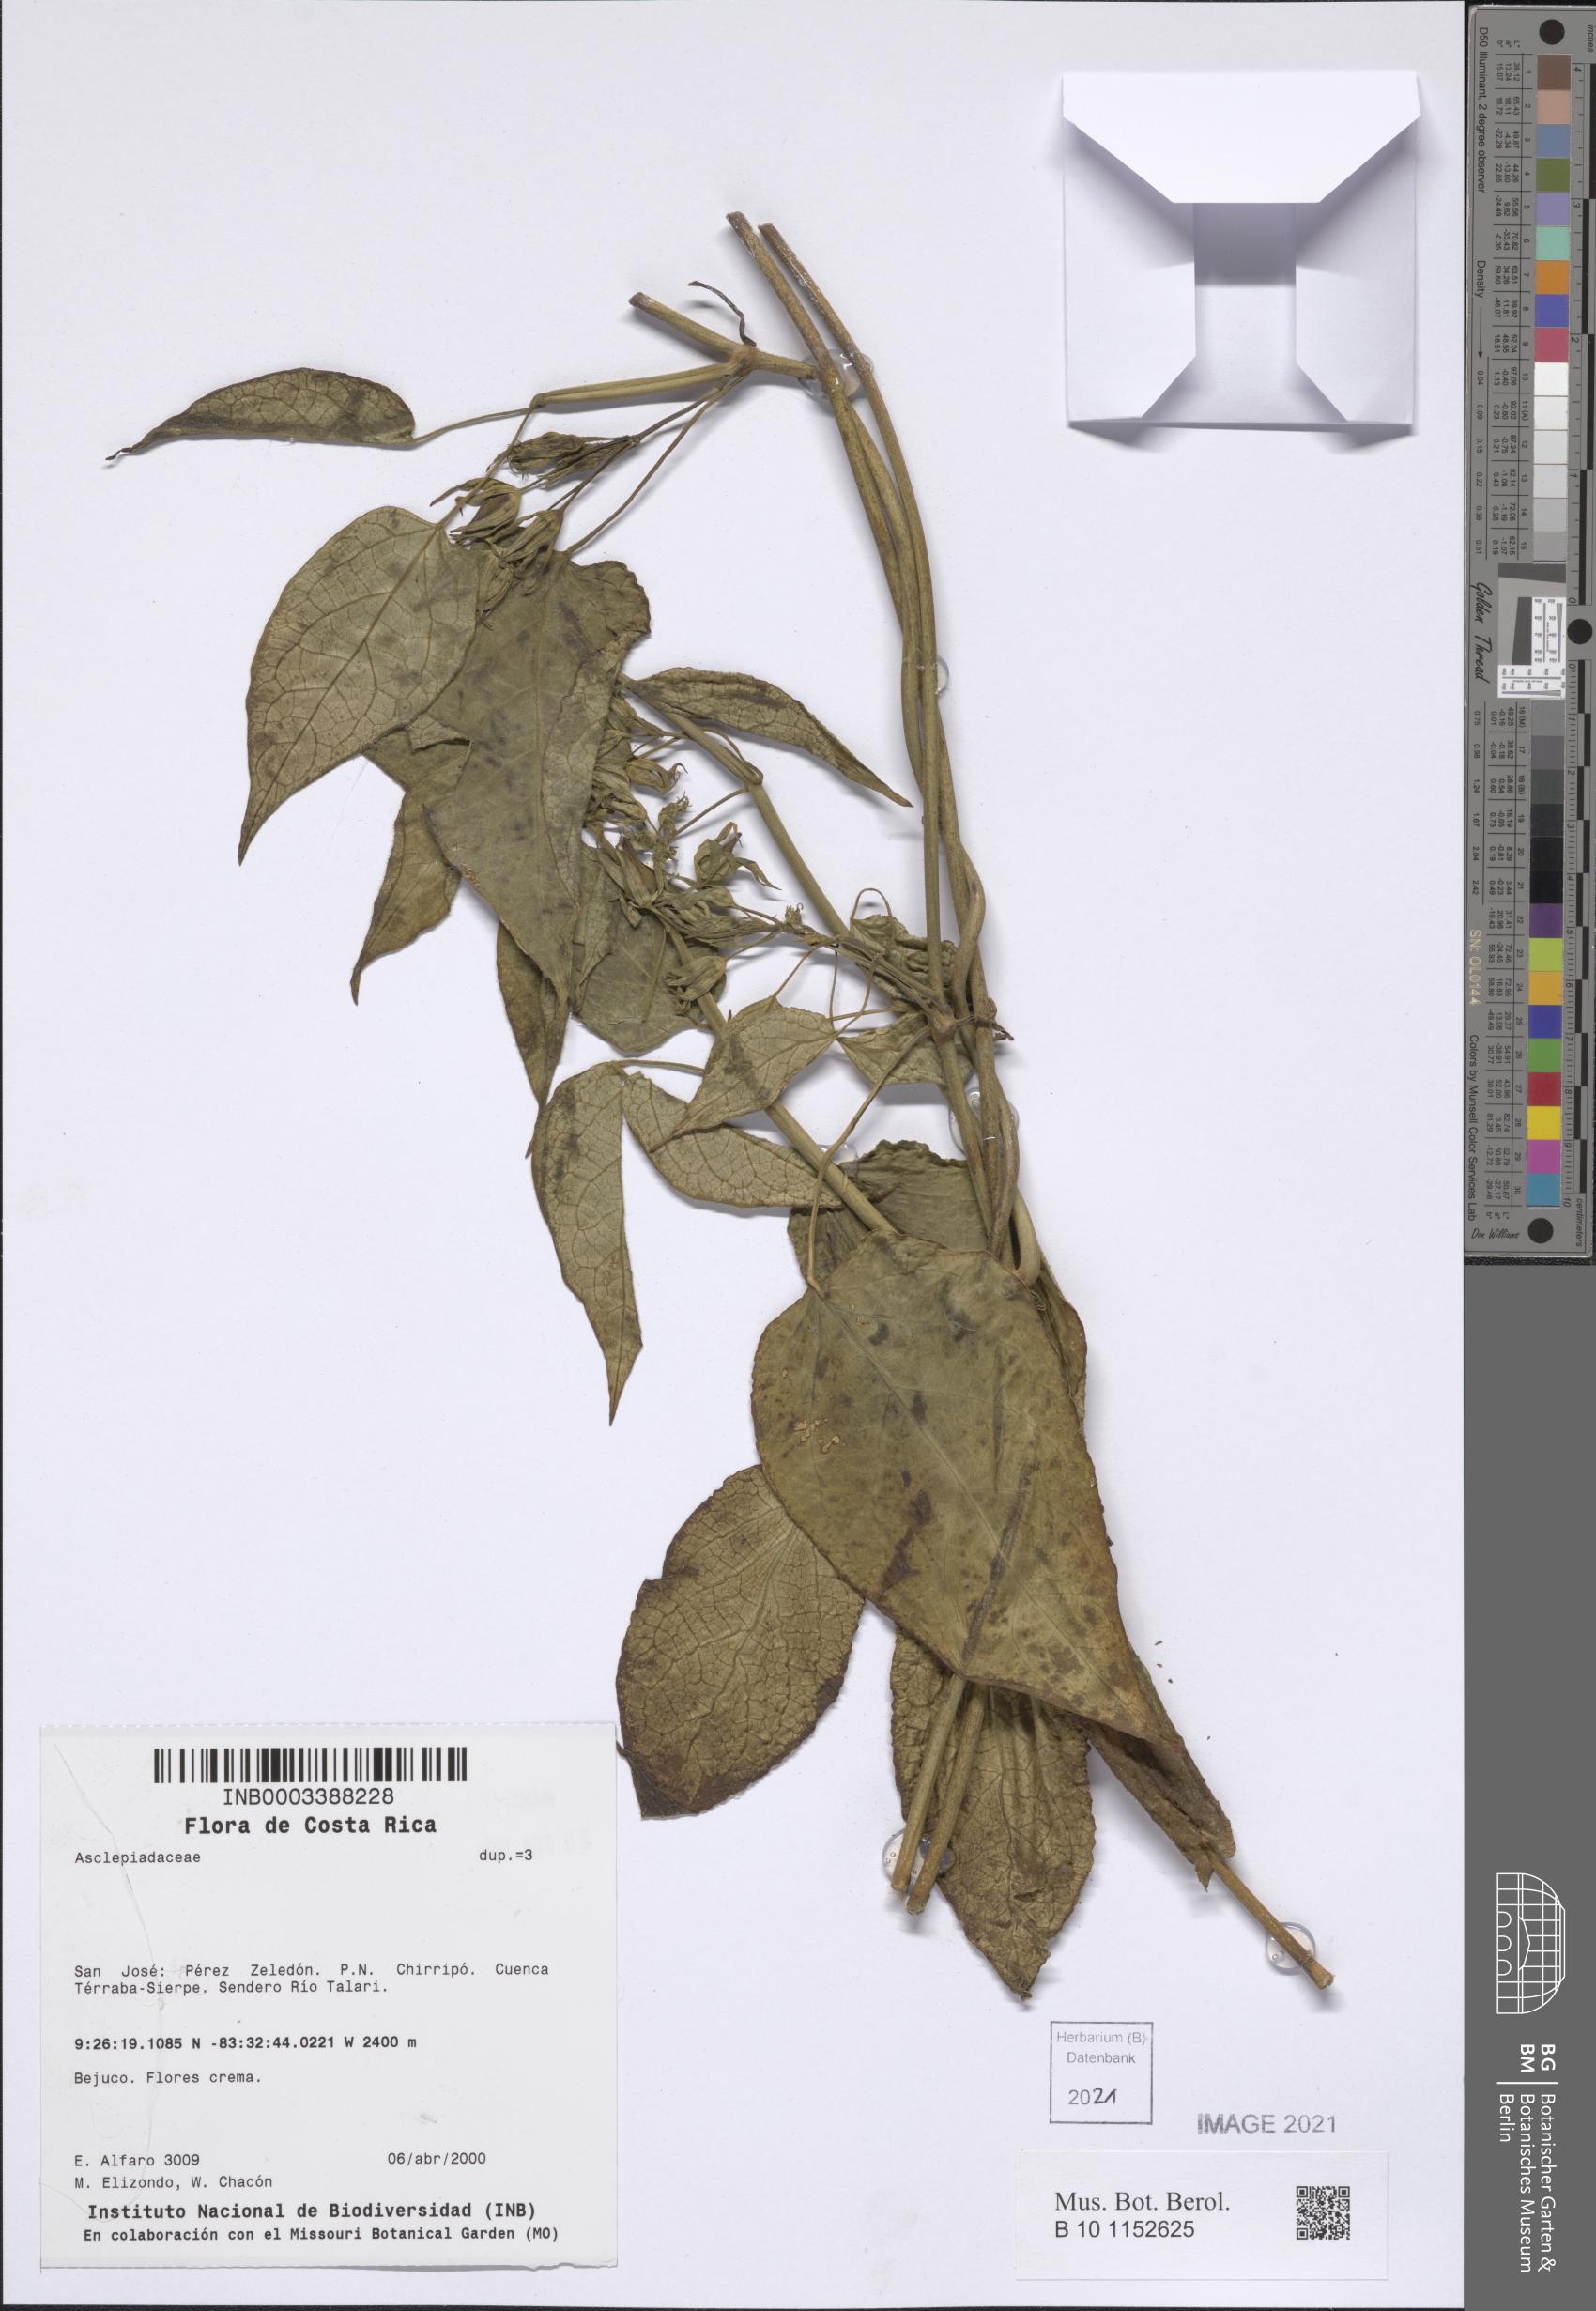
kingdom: Plantae
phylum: Tracheophyta
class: Magnoliopsida
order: Gentianales
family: Apocynaceae
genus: Gonolobus
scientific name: Gonolobus albomarginatus
